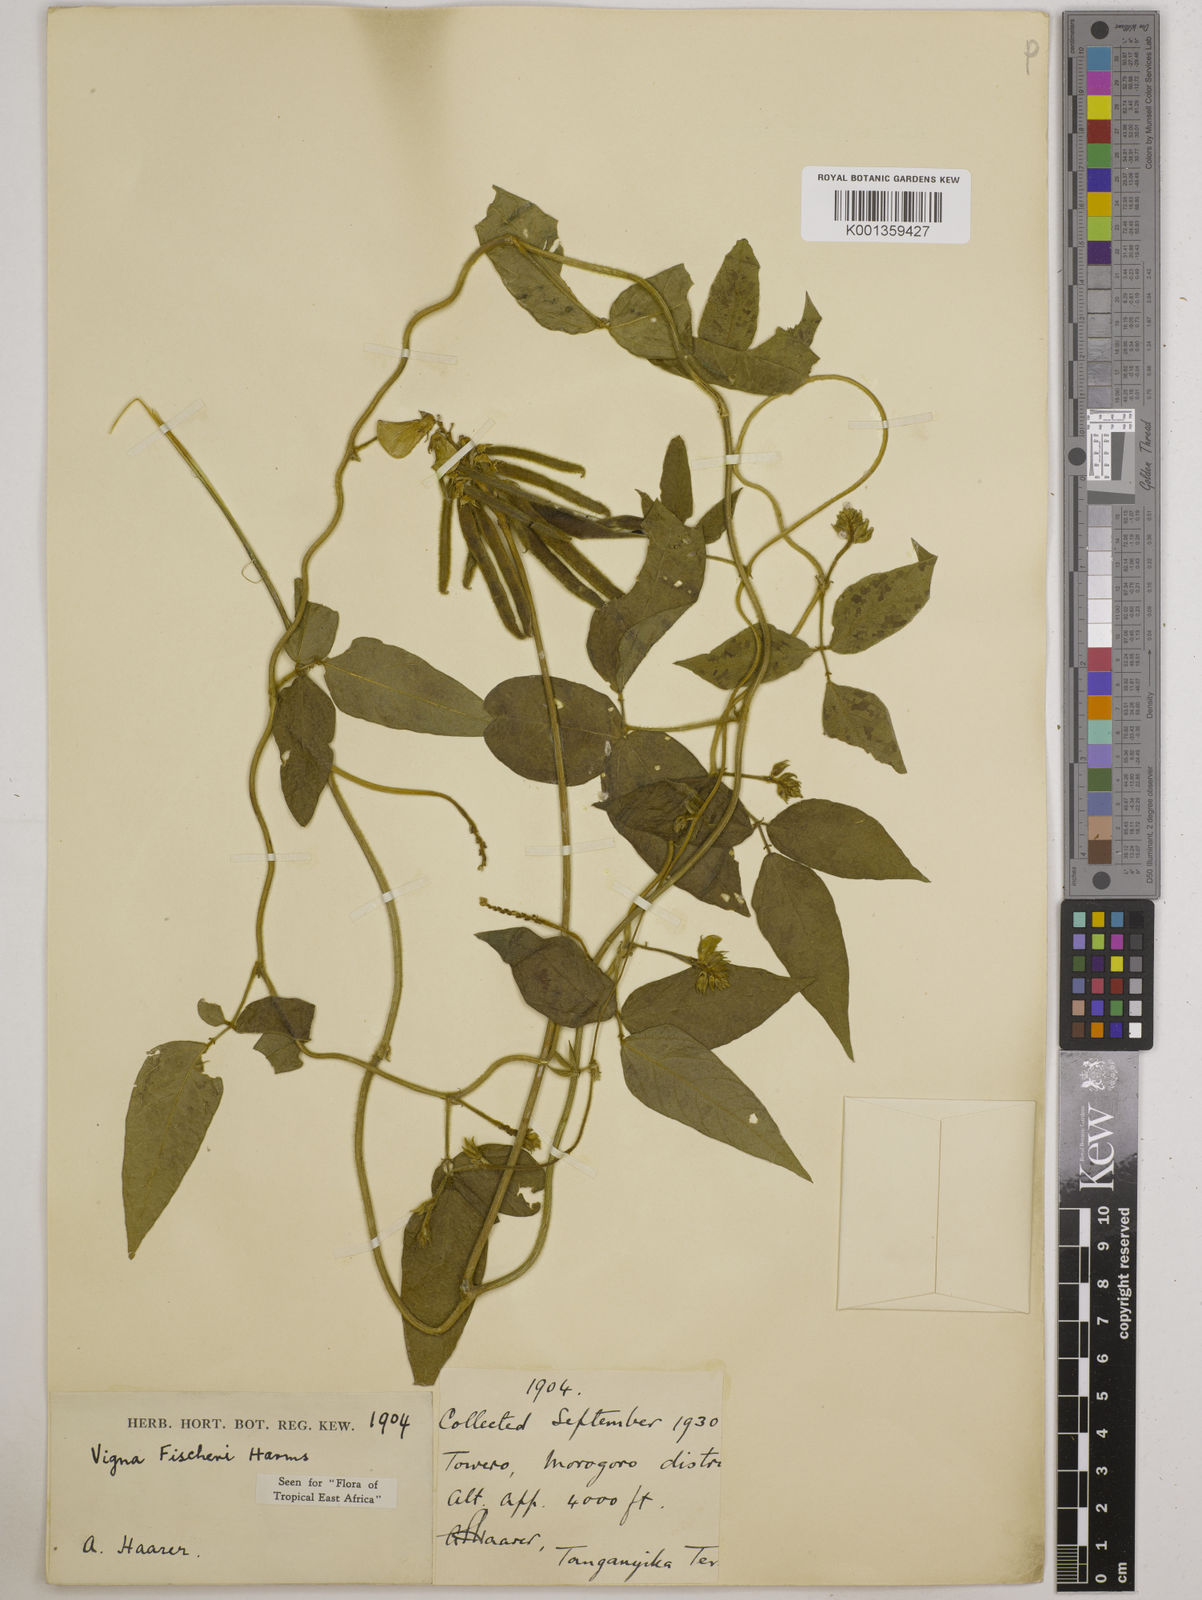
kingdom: Plantae
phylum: Tracheophyta
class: Magnoliopsida
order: Fabales
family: Fabaceae
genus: Vigna
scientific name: Vigna fischeri
